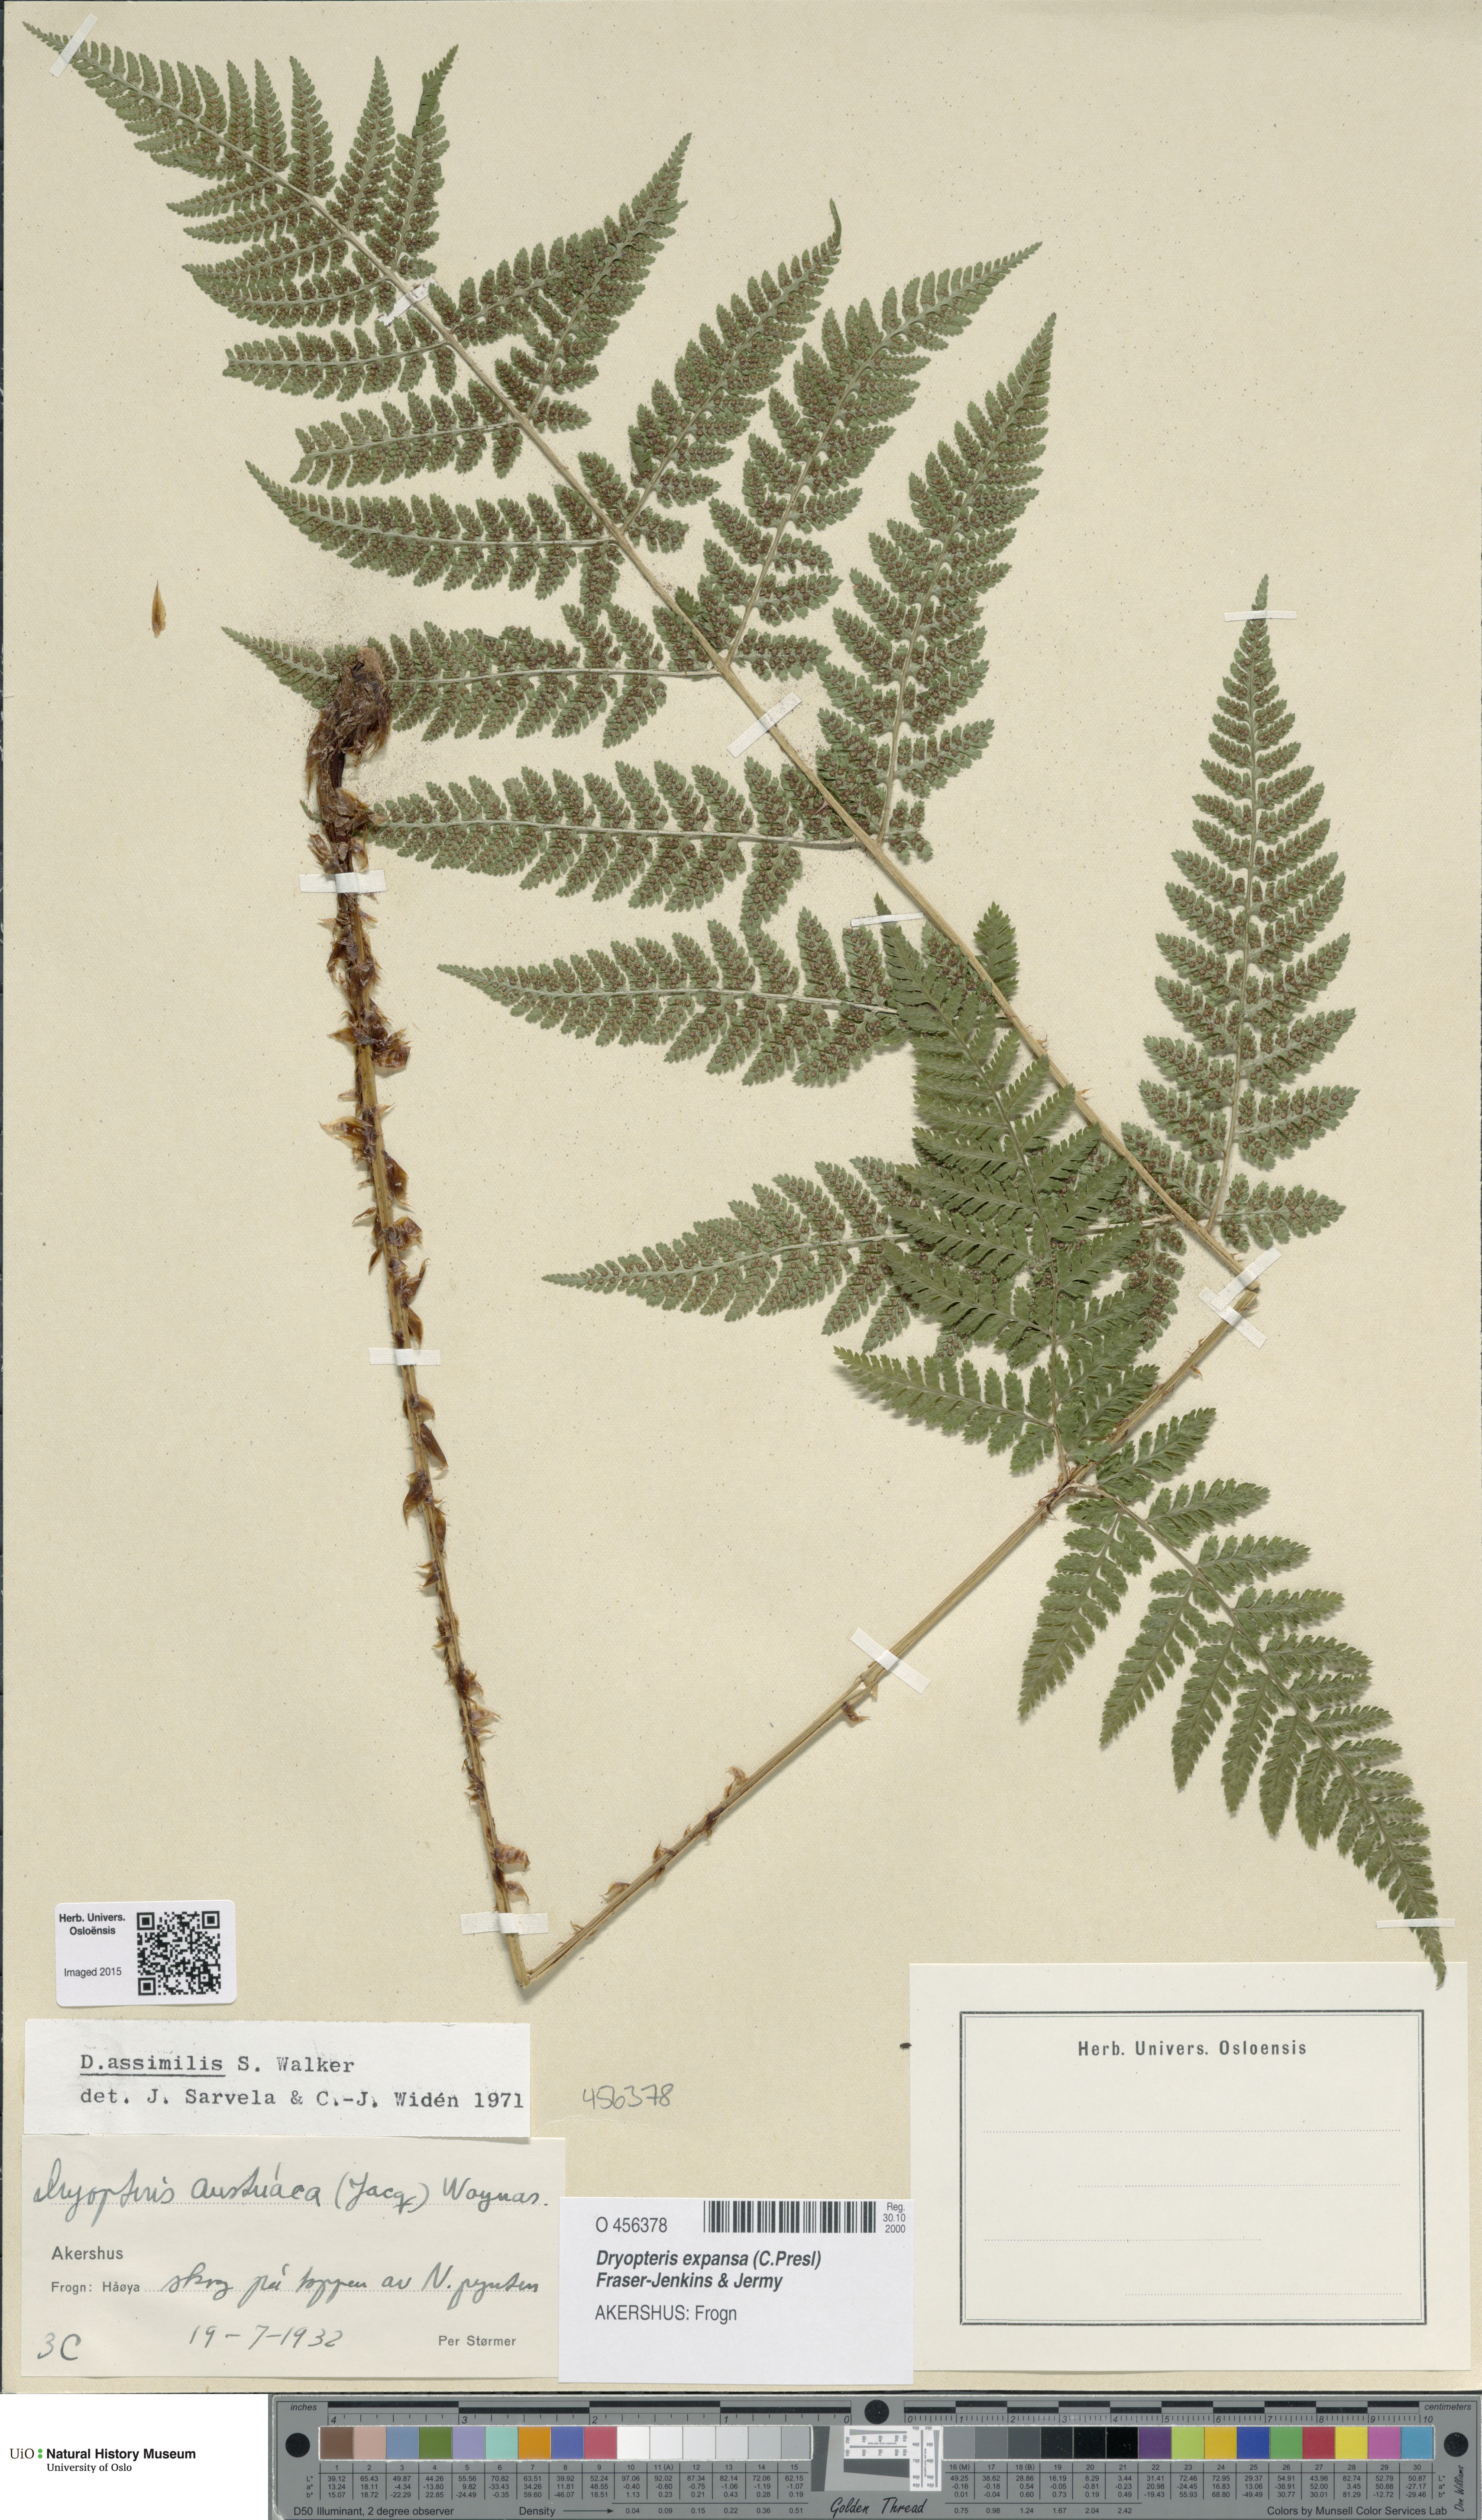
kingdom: Plantae
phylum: Tracheophyta
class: Polypodiopsida
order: Polypodiales
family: Dryopteridaceae
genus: Dryopteris
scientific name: Dryopteris expansa
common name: Northern buckler fern
